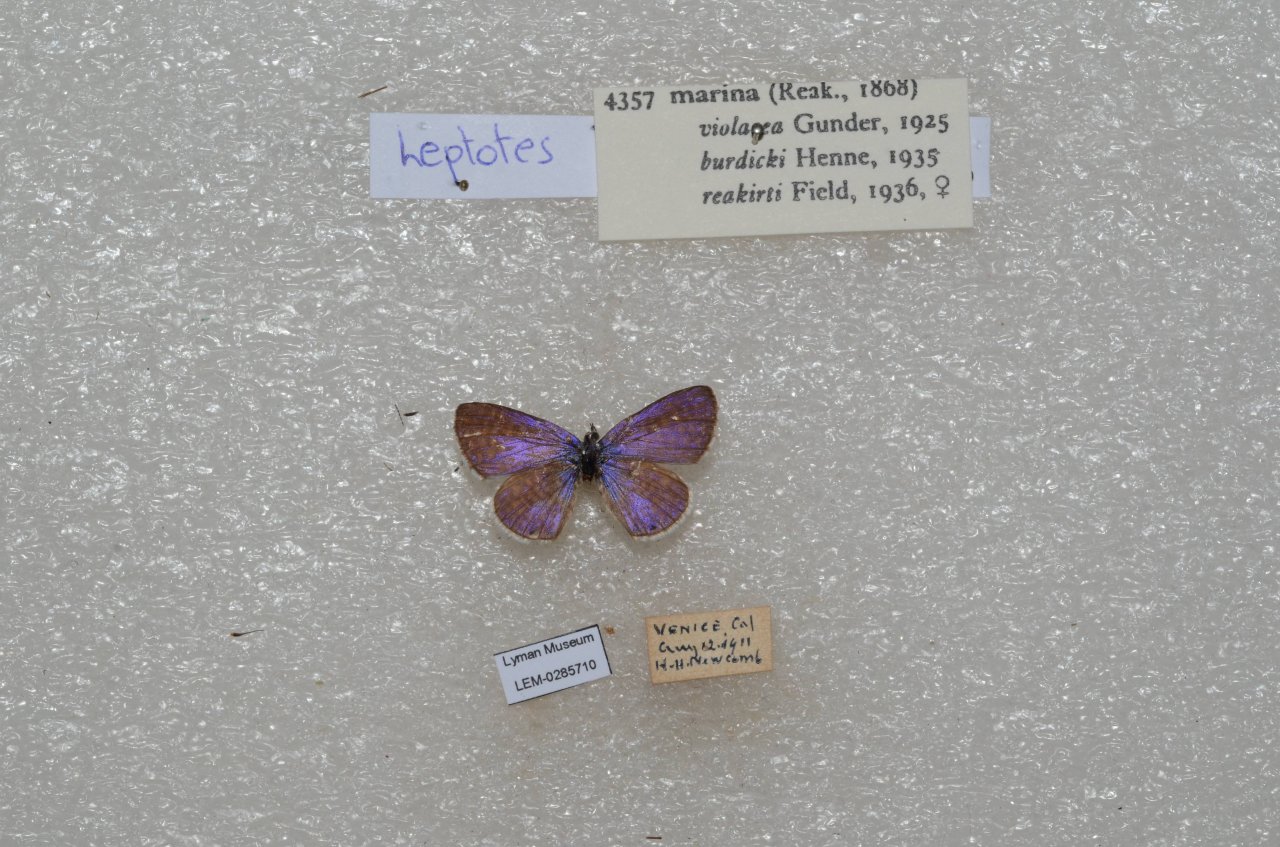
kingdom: Animalia
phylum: Arthropoda
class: Insecta
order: Lepidoptera
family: Lycaenidae
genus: Leptotes
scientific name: Leptotes marina
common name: Marine Blue
